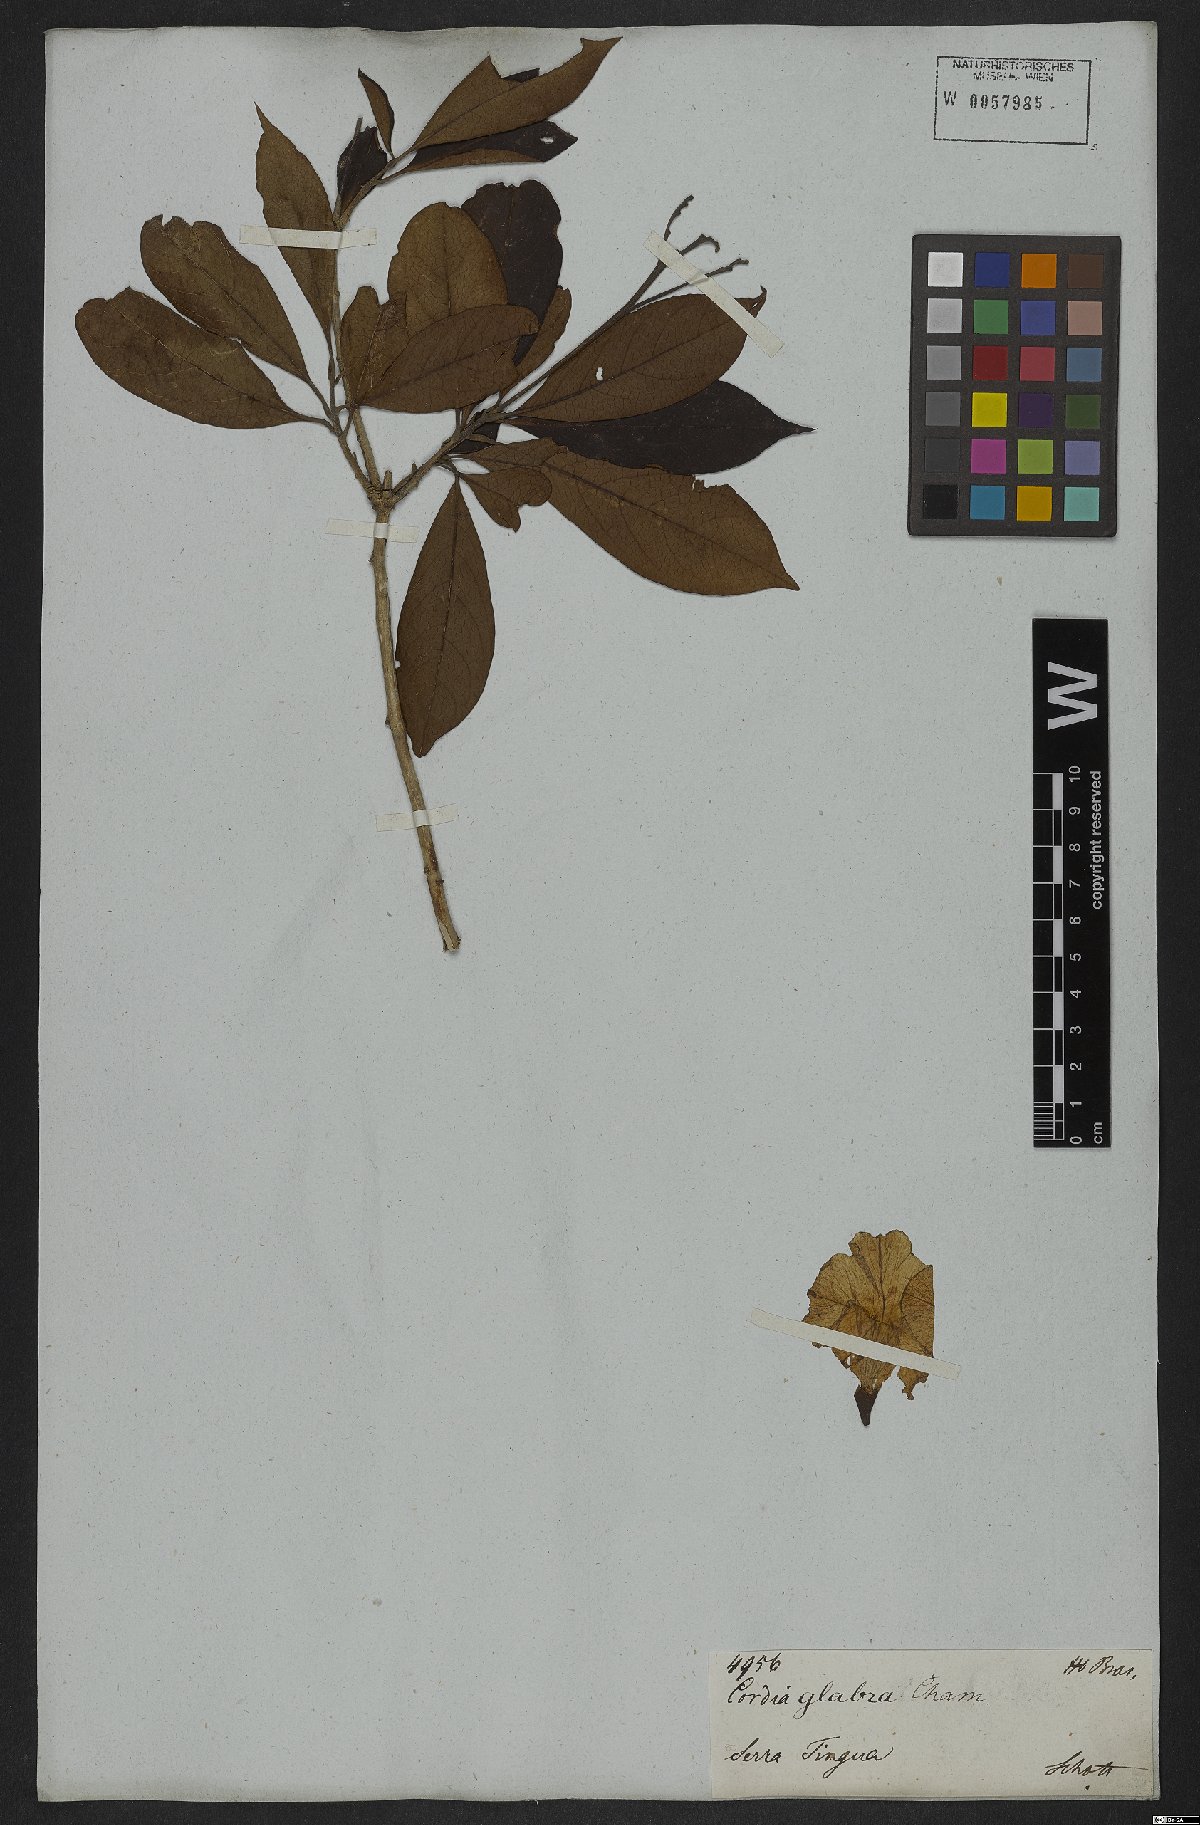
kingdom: Plantae
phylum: Tracheophyta
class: Magnoliopsida
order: Boraginales
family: Cordiaceae
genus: Cordia
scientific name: Cordia glabra
